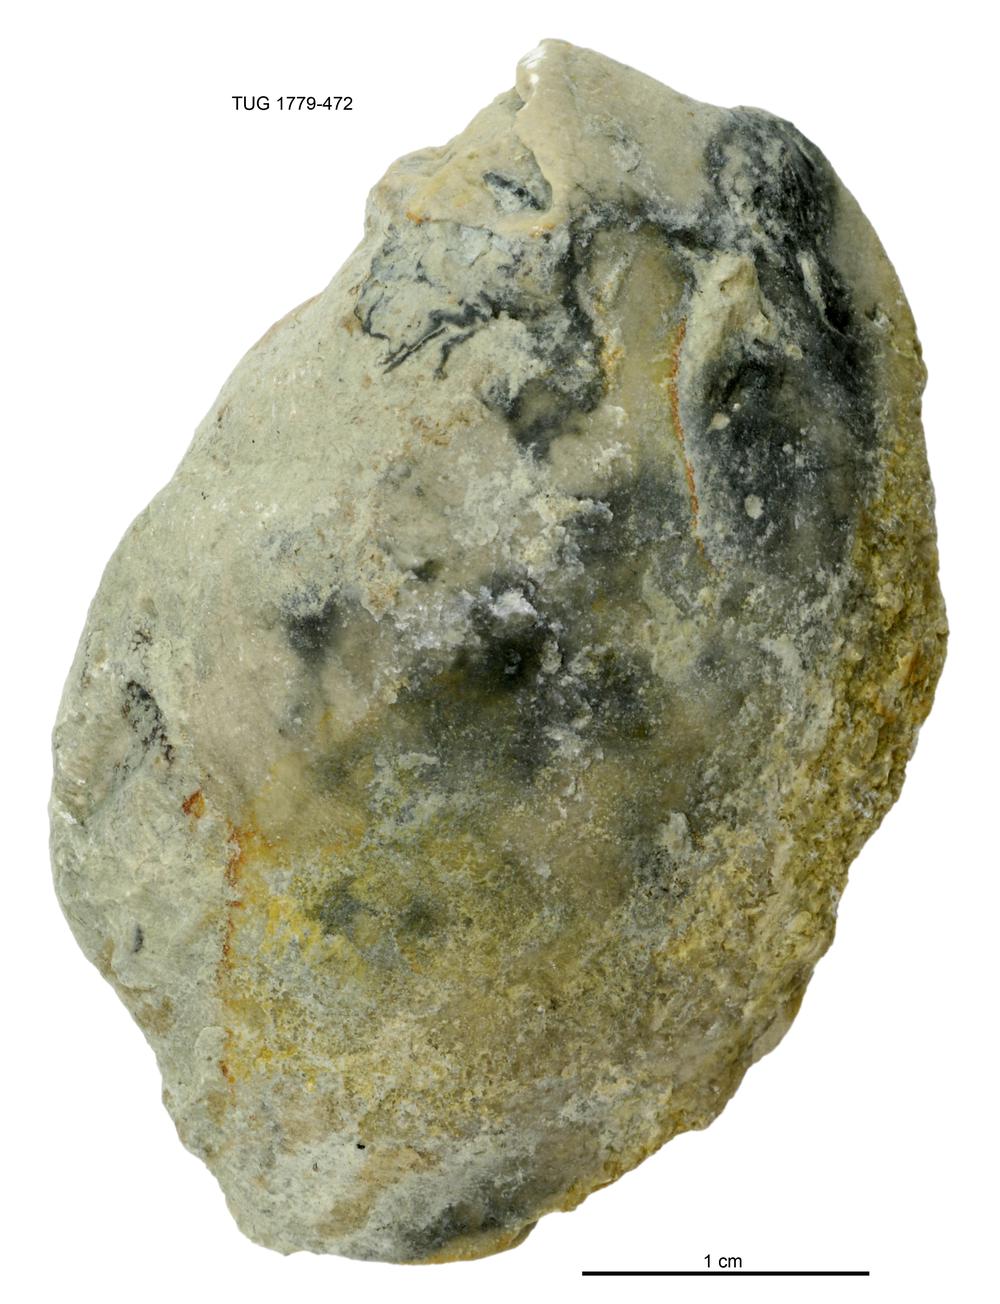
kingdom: Animalia
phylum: Mollusca
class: Bivalvia
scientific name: Bivalvia
